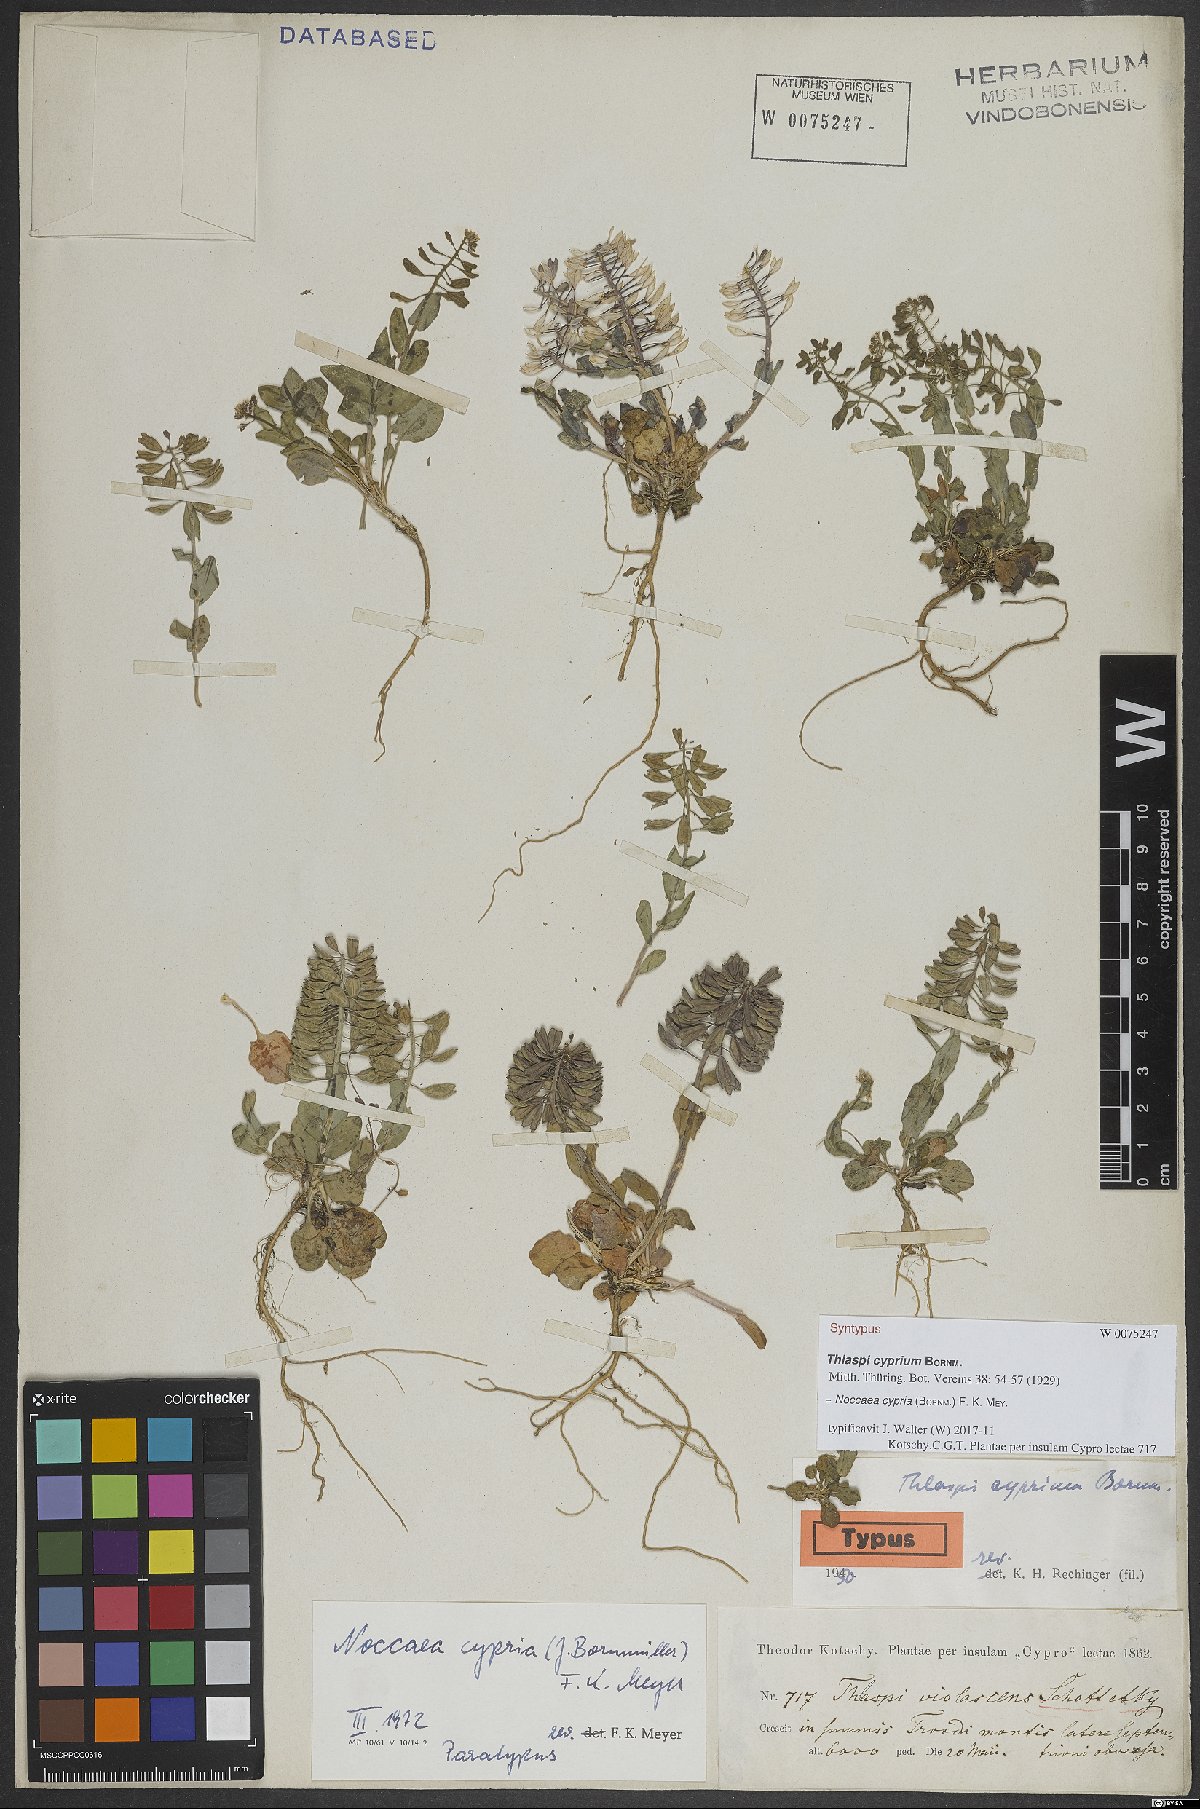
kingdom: Plantae
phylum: Tracheophyta
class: Magnoliopsida
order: Brassicales
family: Brassicaceae
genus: Noccaea
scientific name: Noccaea cypria
